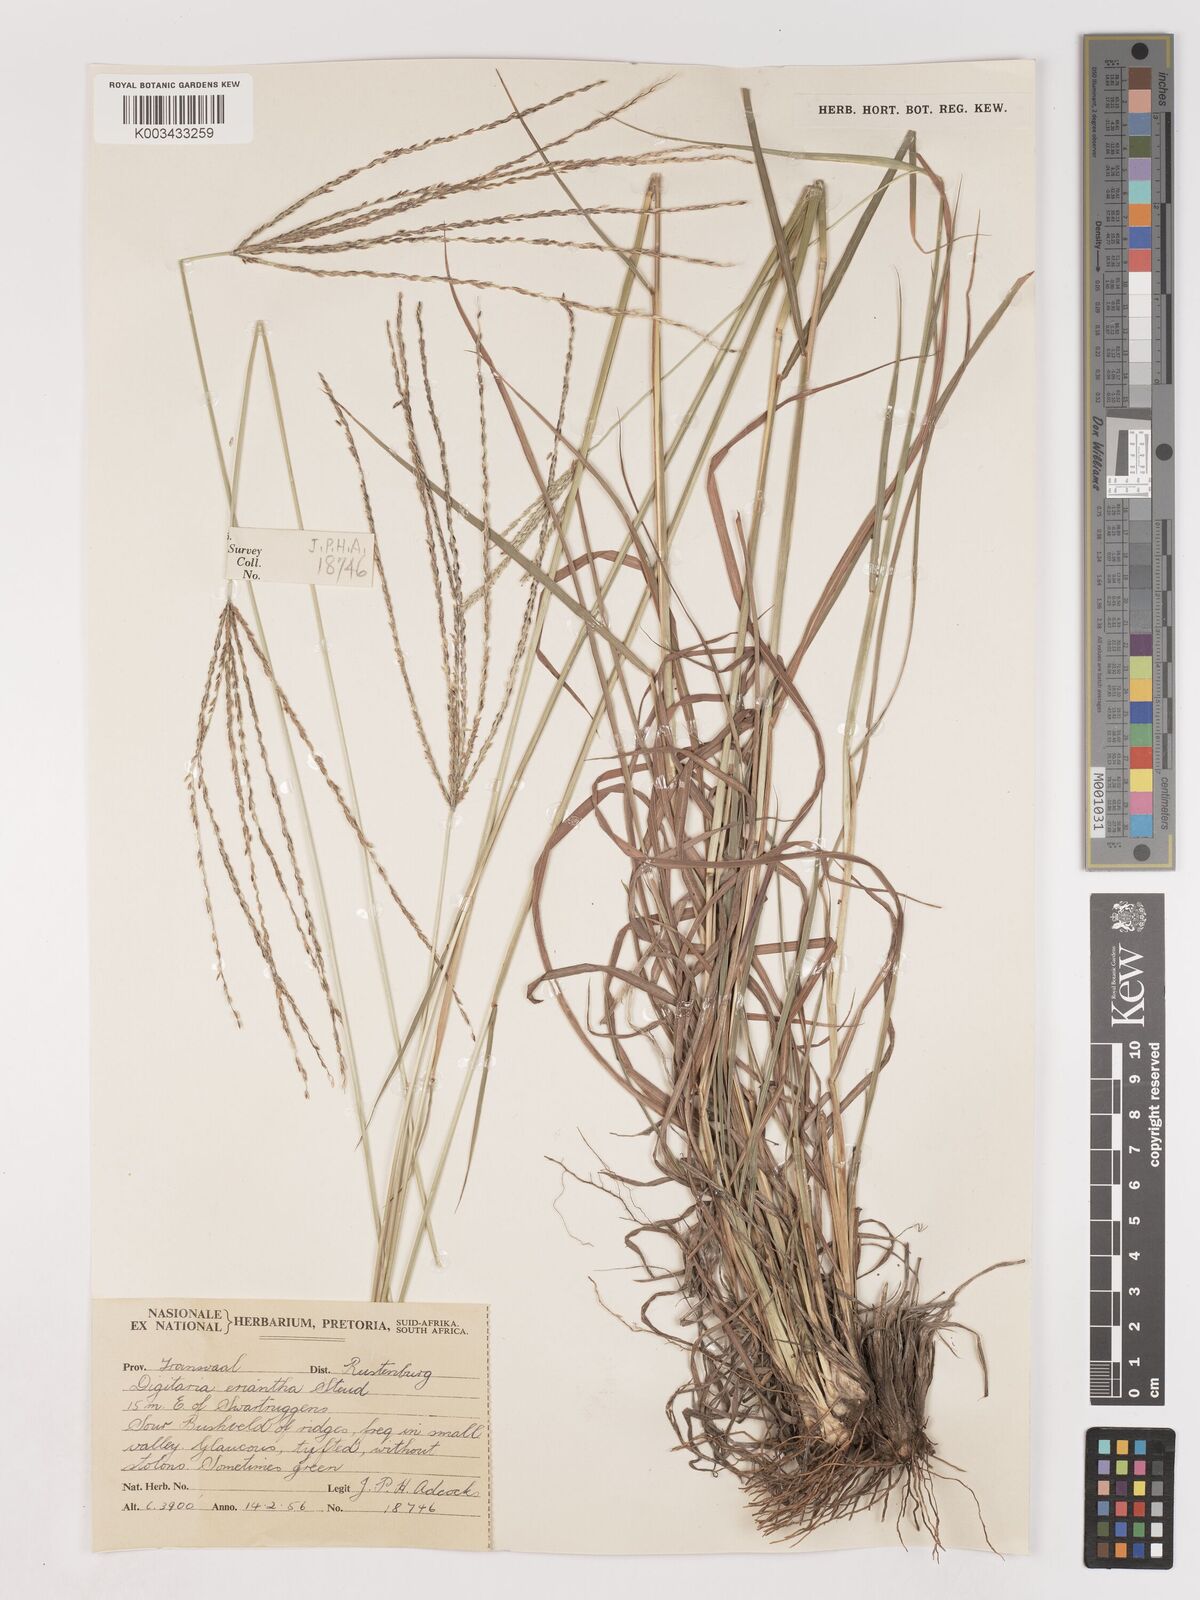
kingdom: Plantae
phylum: Tracheophyta
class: Liliopsida
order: Poales
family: Poaceae
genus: Digitaria
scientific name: Digitaria eriantha
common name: Digitgrass
